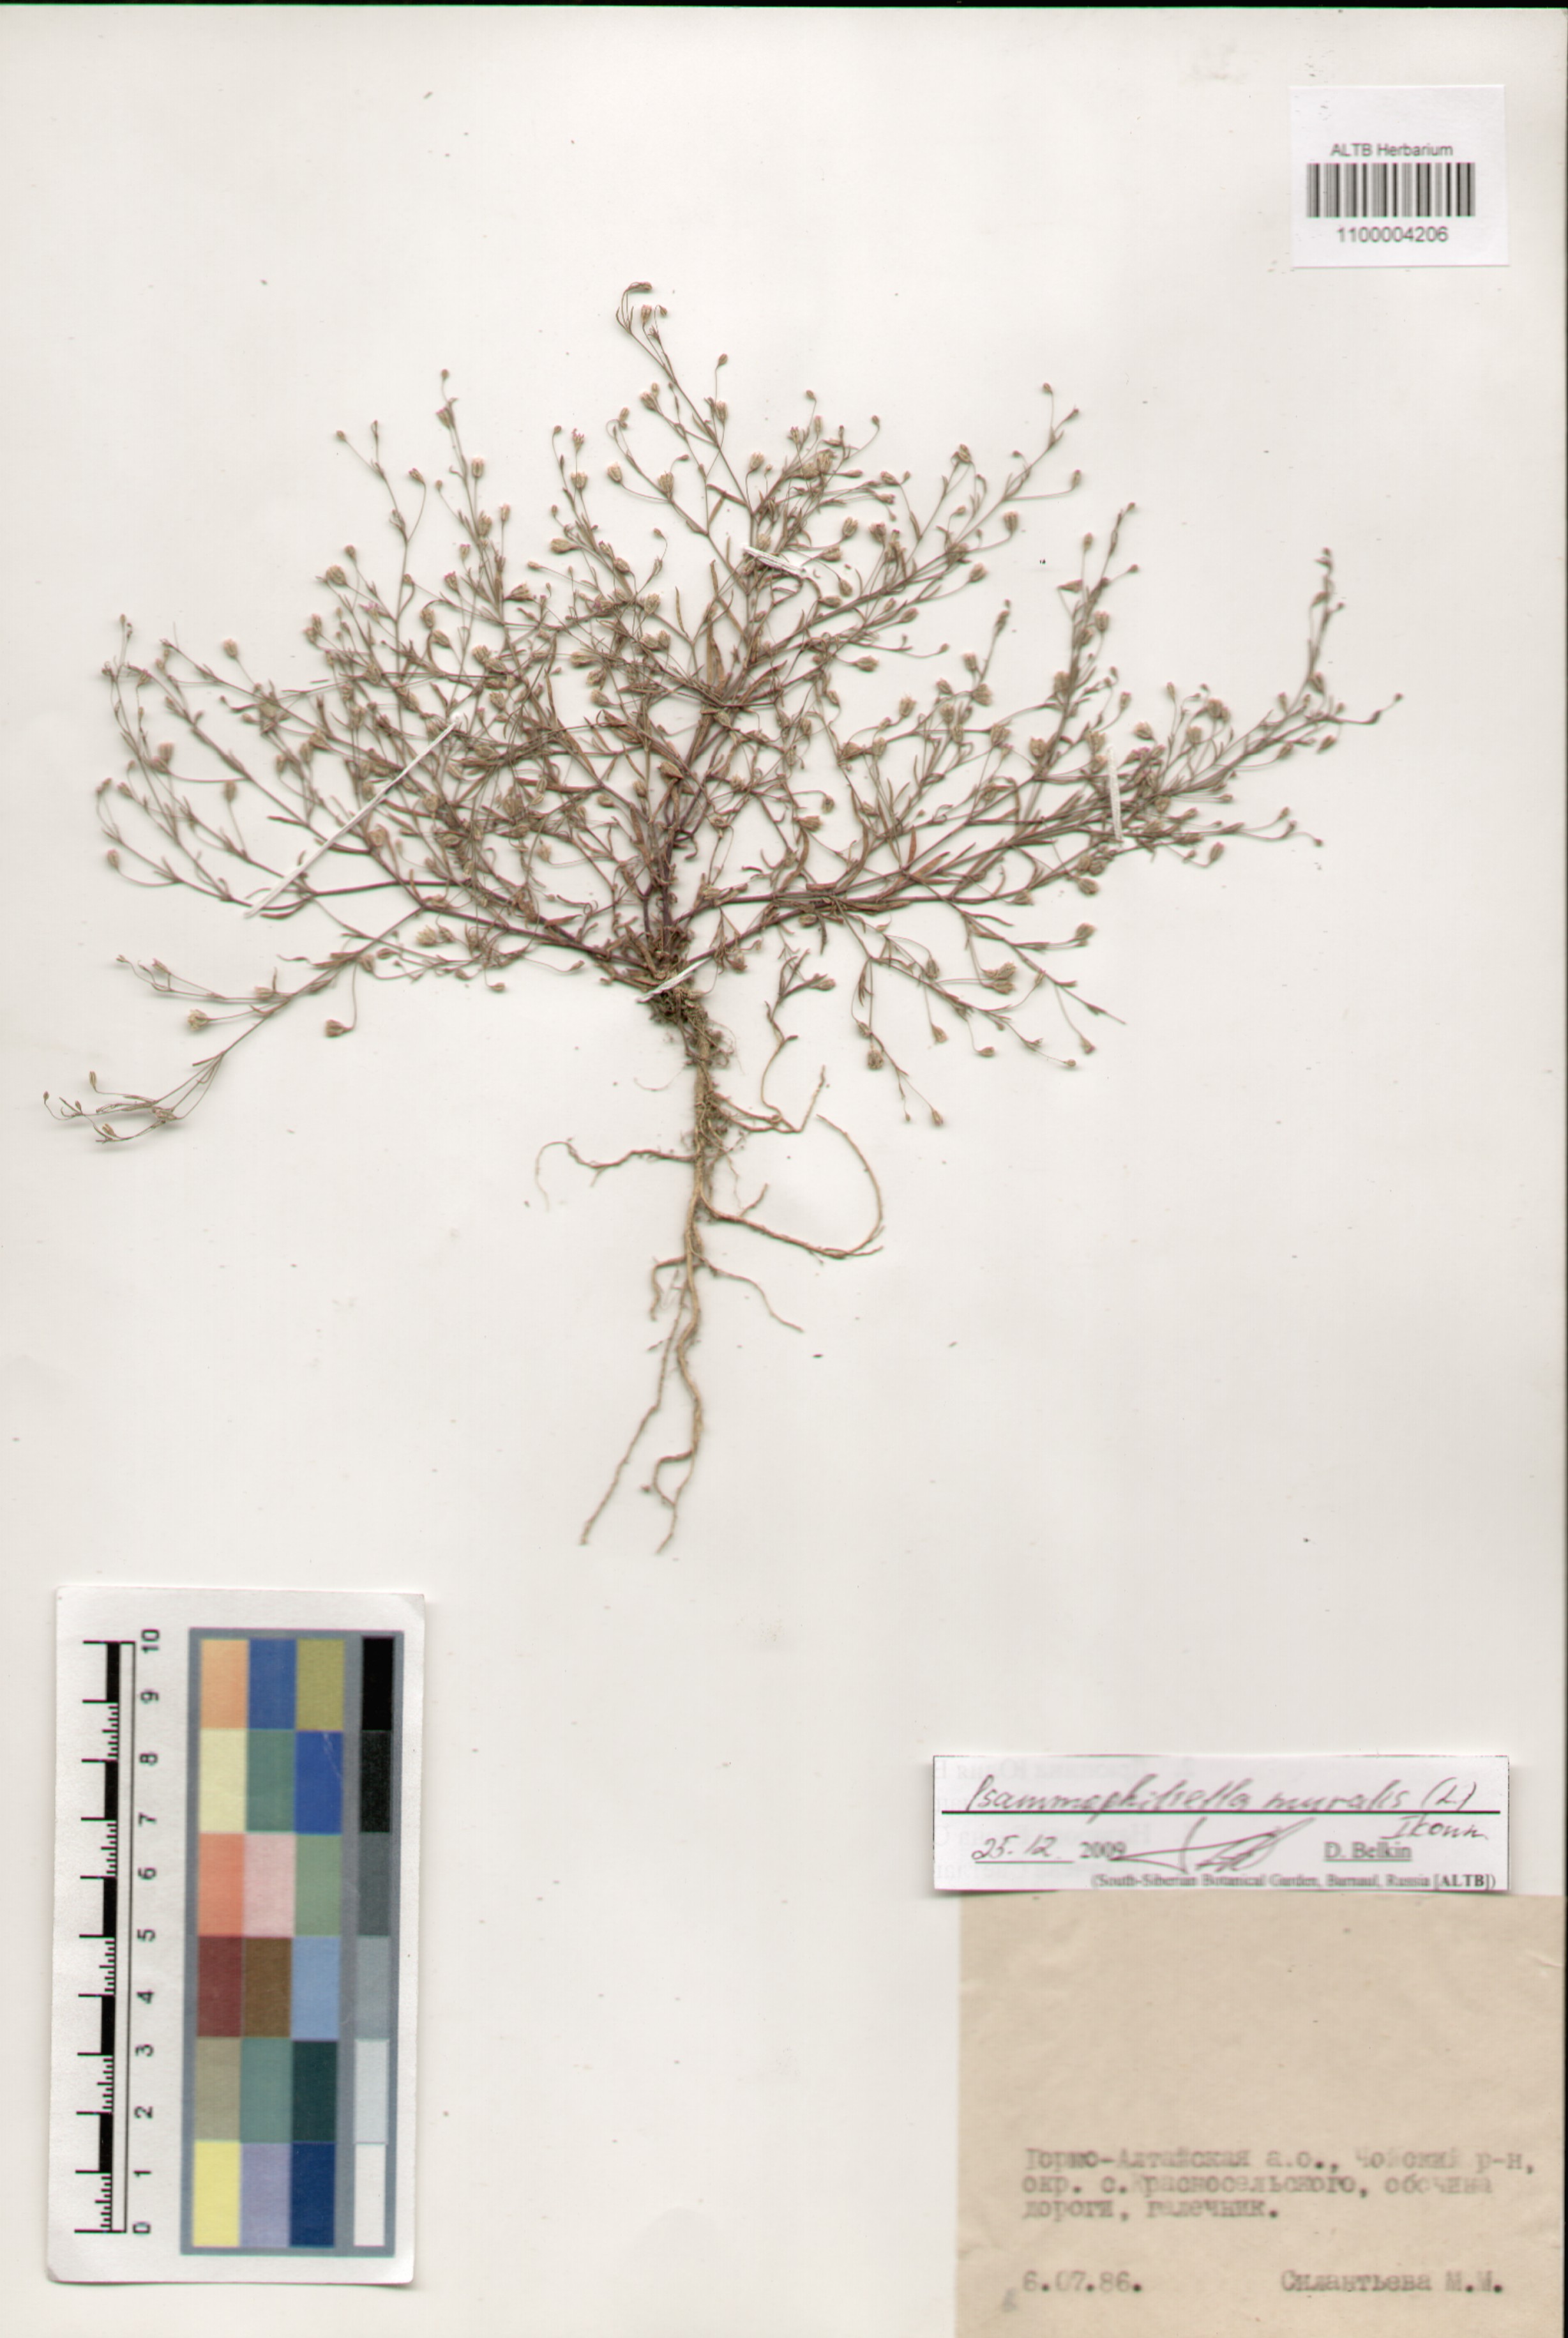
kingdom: Plantae
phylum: Tracheophyta
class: Magnoliopsida
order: Caryophyllales
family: Caryophyllaceae
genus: Psammophiliella
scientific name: Psammophiliella muralis
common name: Cushion baby's-breath
